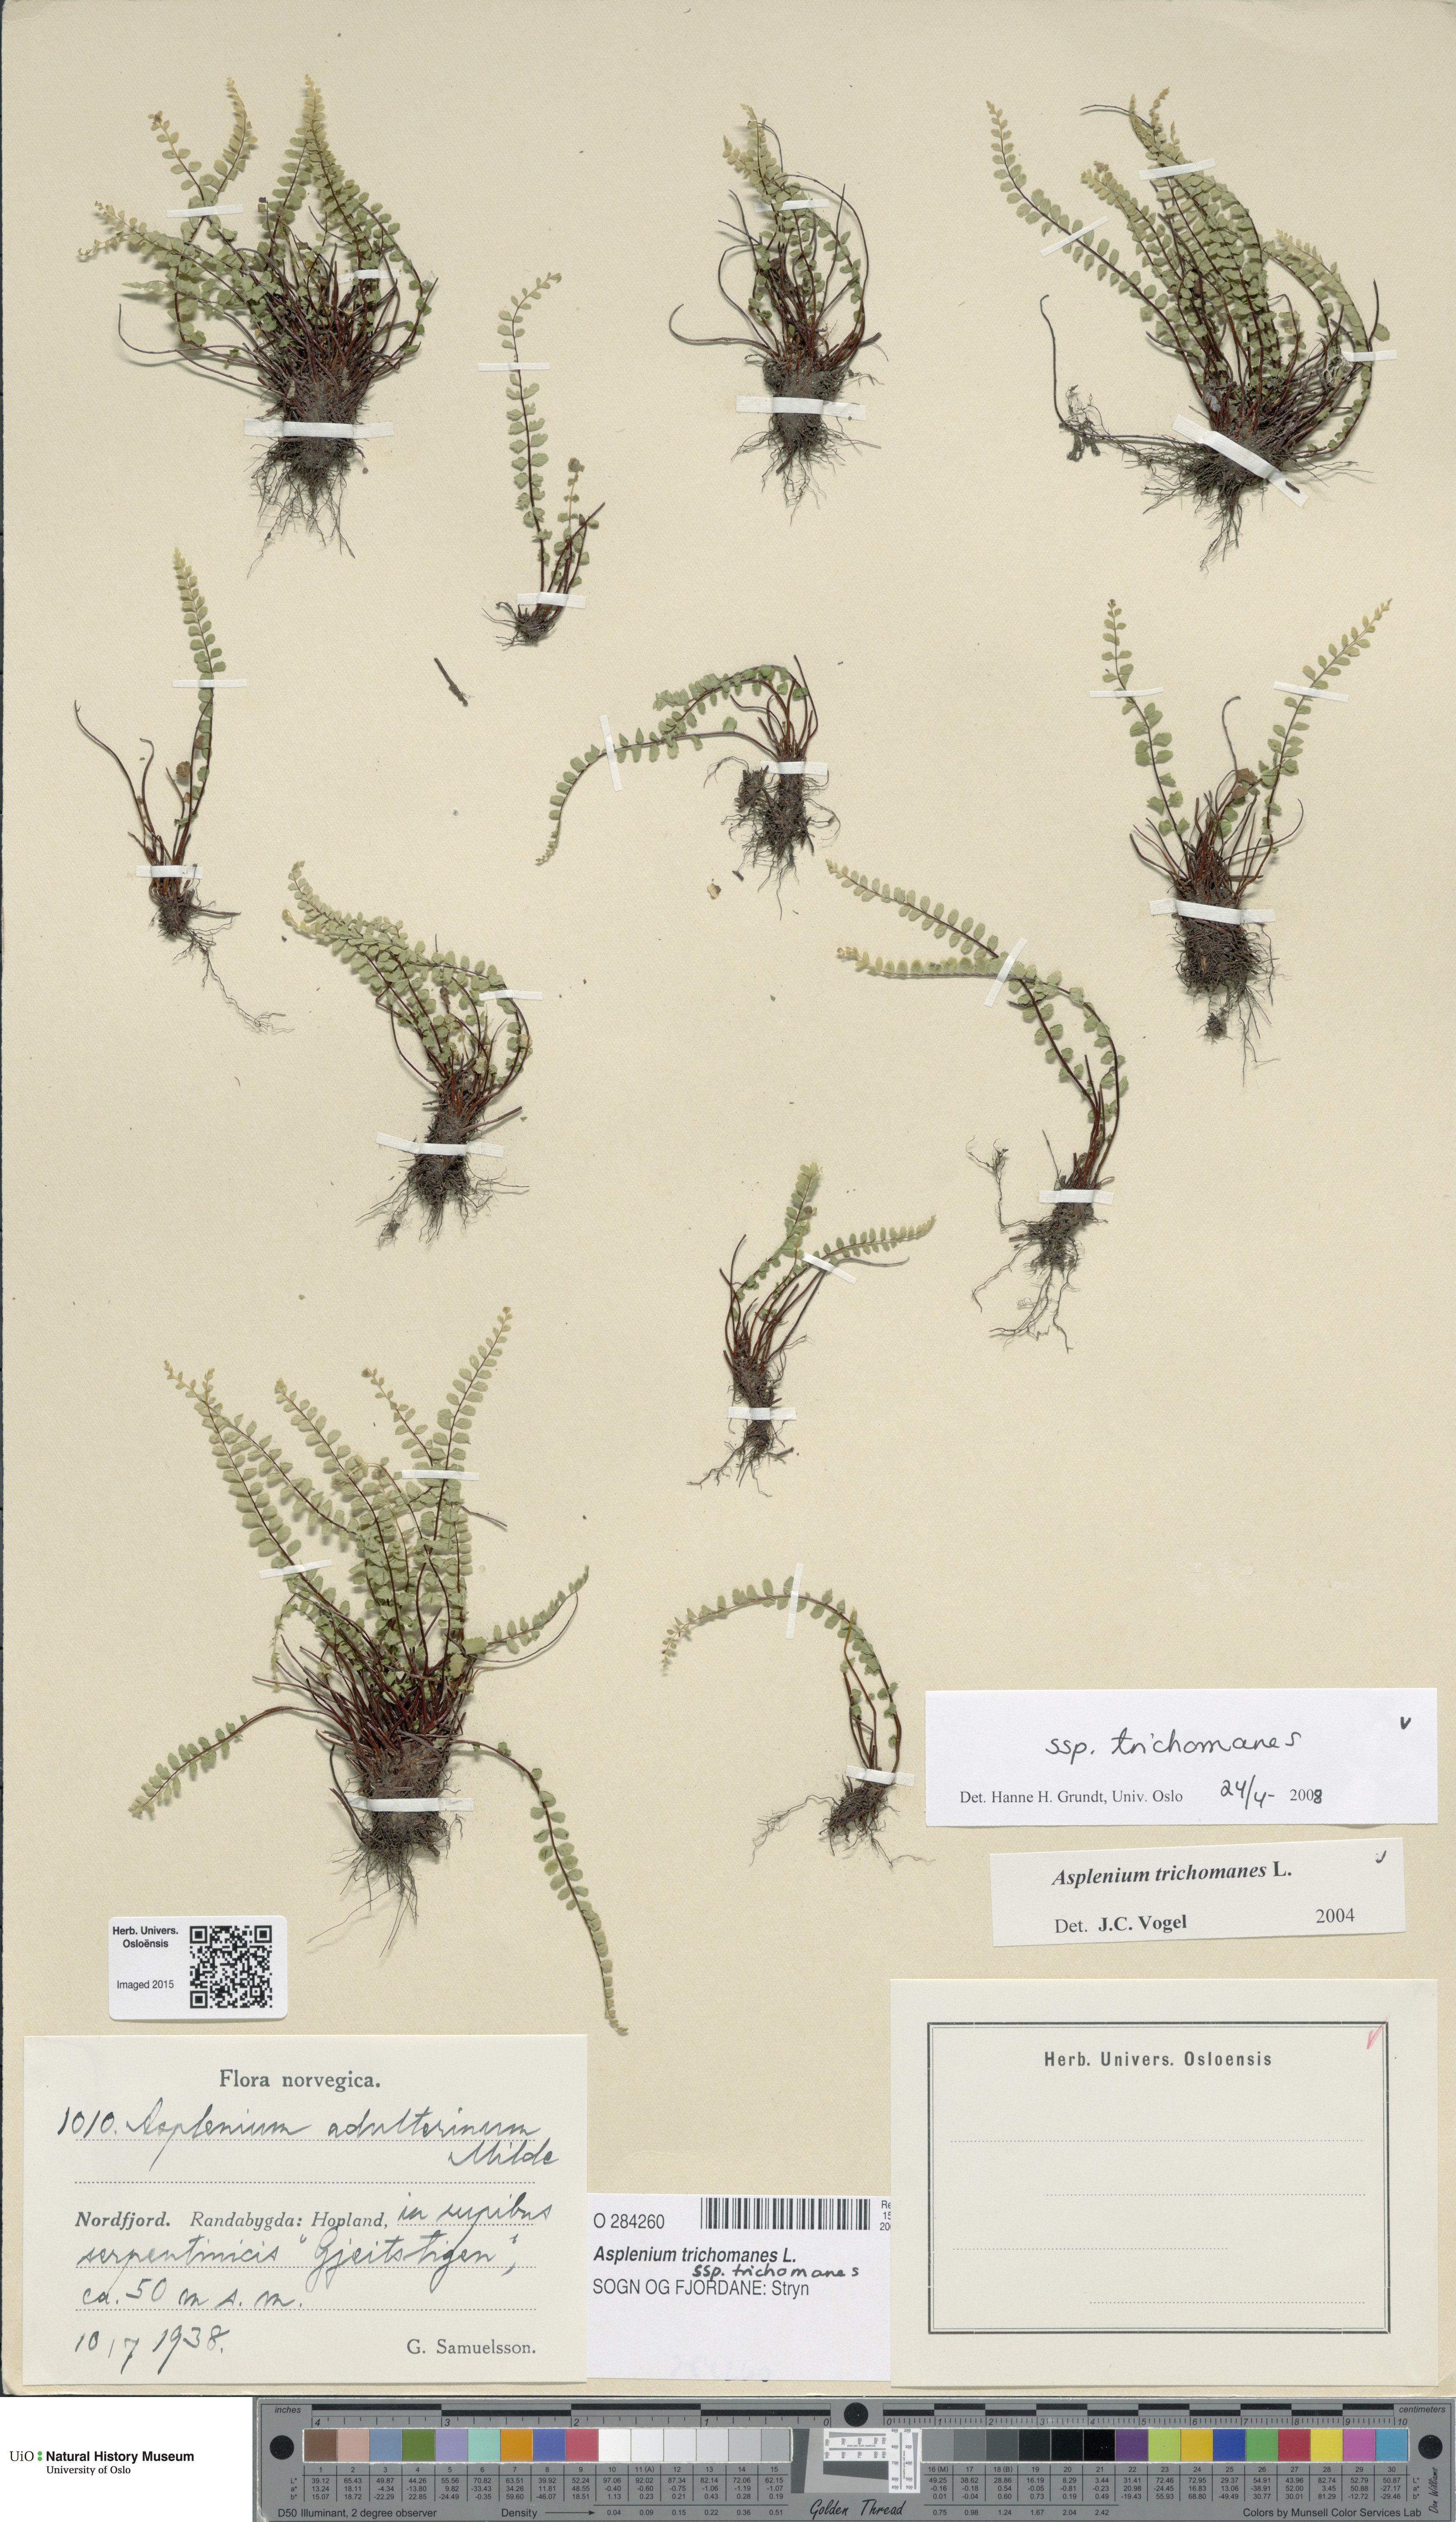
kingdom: Plantae
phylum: Tracheophyta
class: Polypodiopsida
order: Polypodiales
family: Aspleniaceae
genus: Asplenium
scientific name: Asplenium trichomanes
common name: Maidenhair spleenwort
